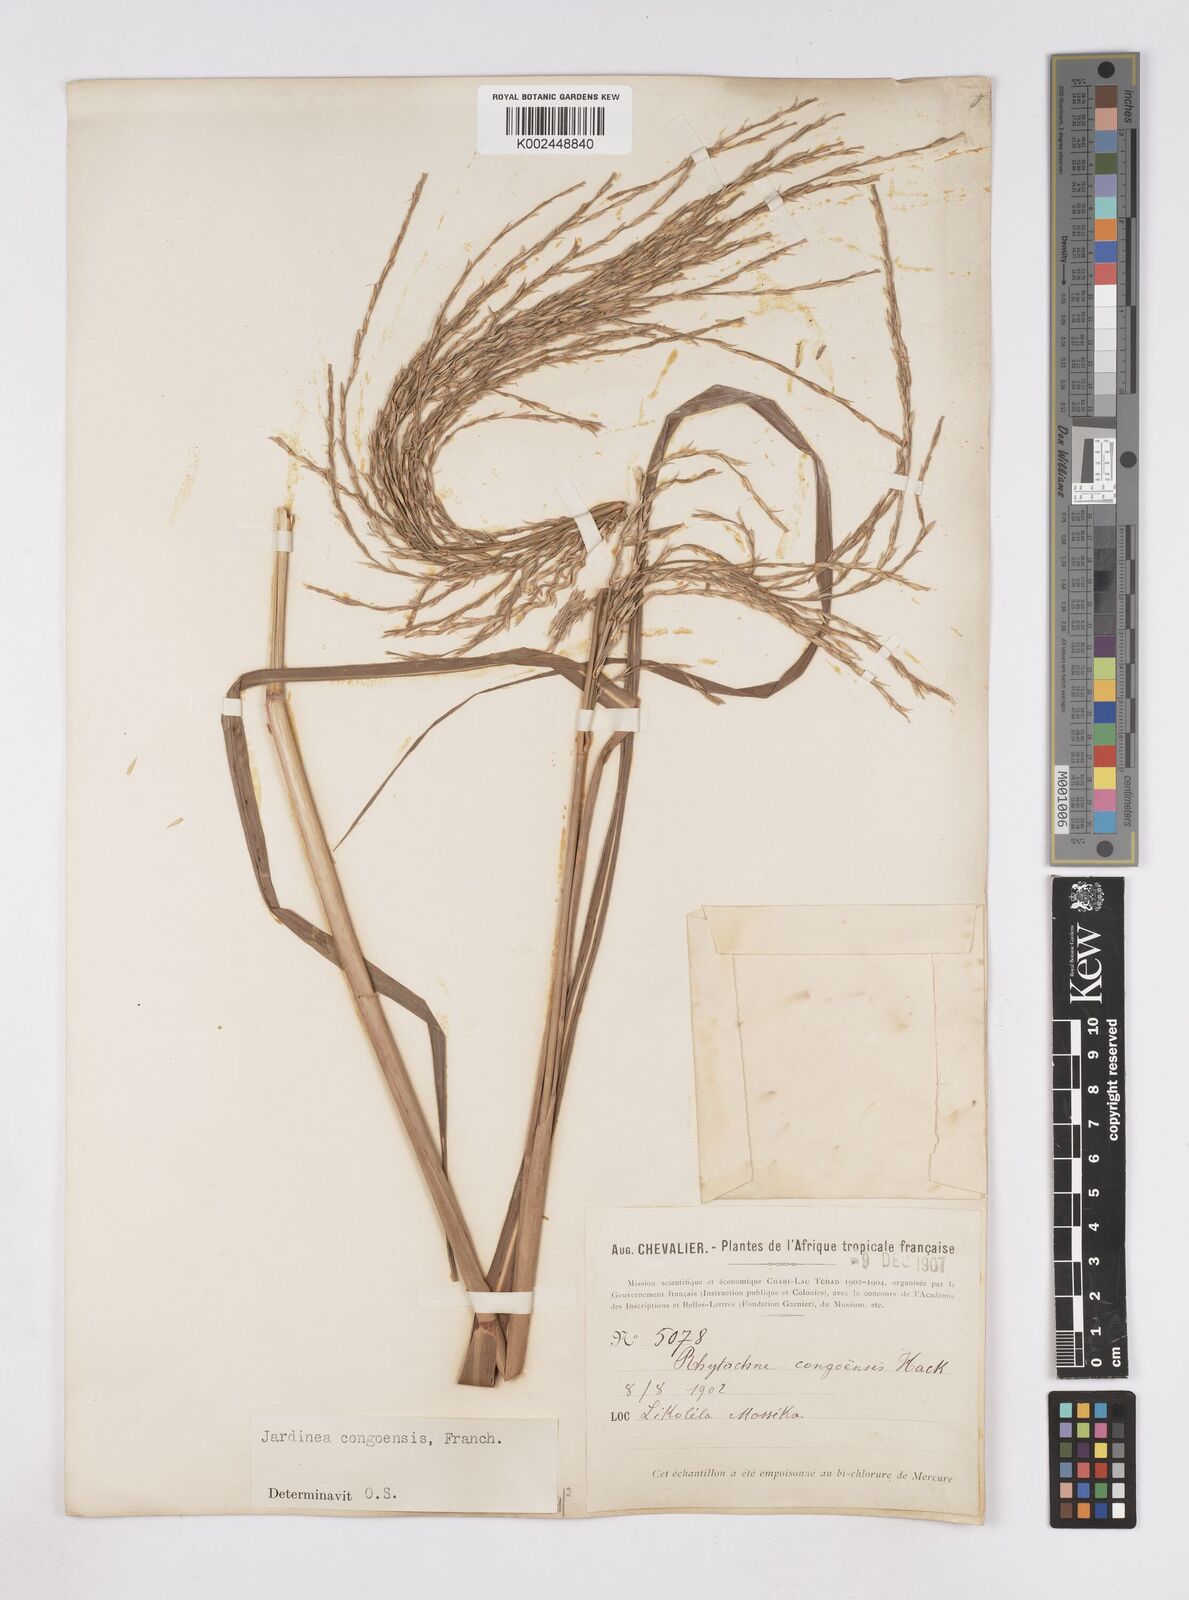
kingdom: Plantae
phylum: Tracheophyta
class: Liliopsida
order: Poales
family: Poaceae
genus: Phacelurus
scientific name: Phacelurus gabonensis
